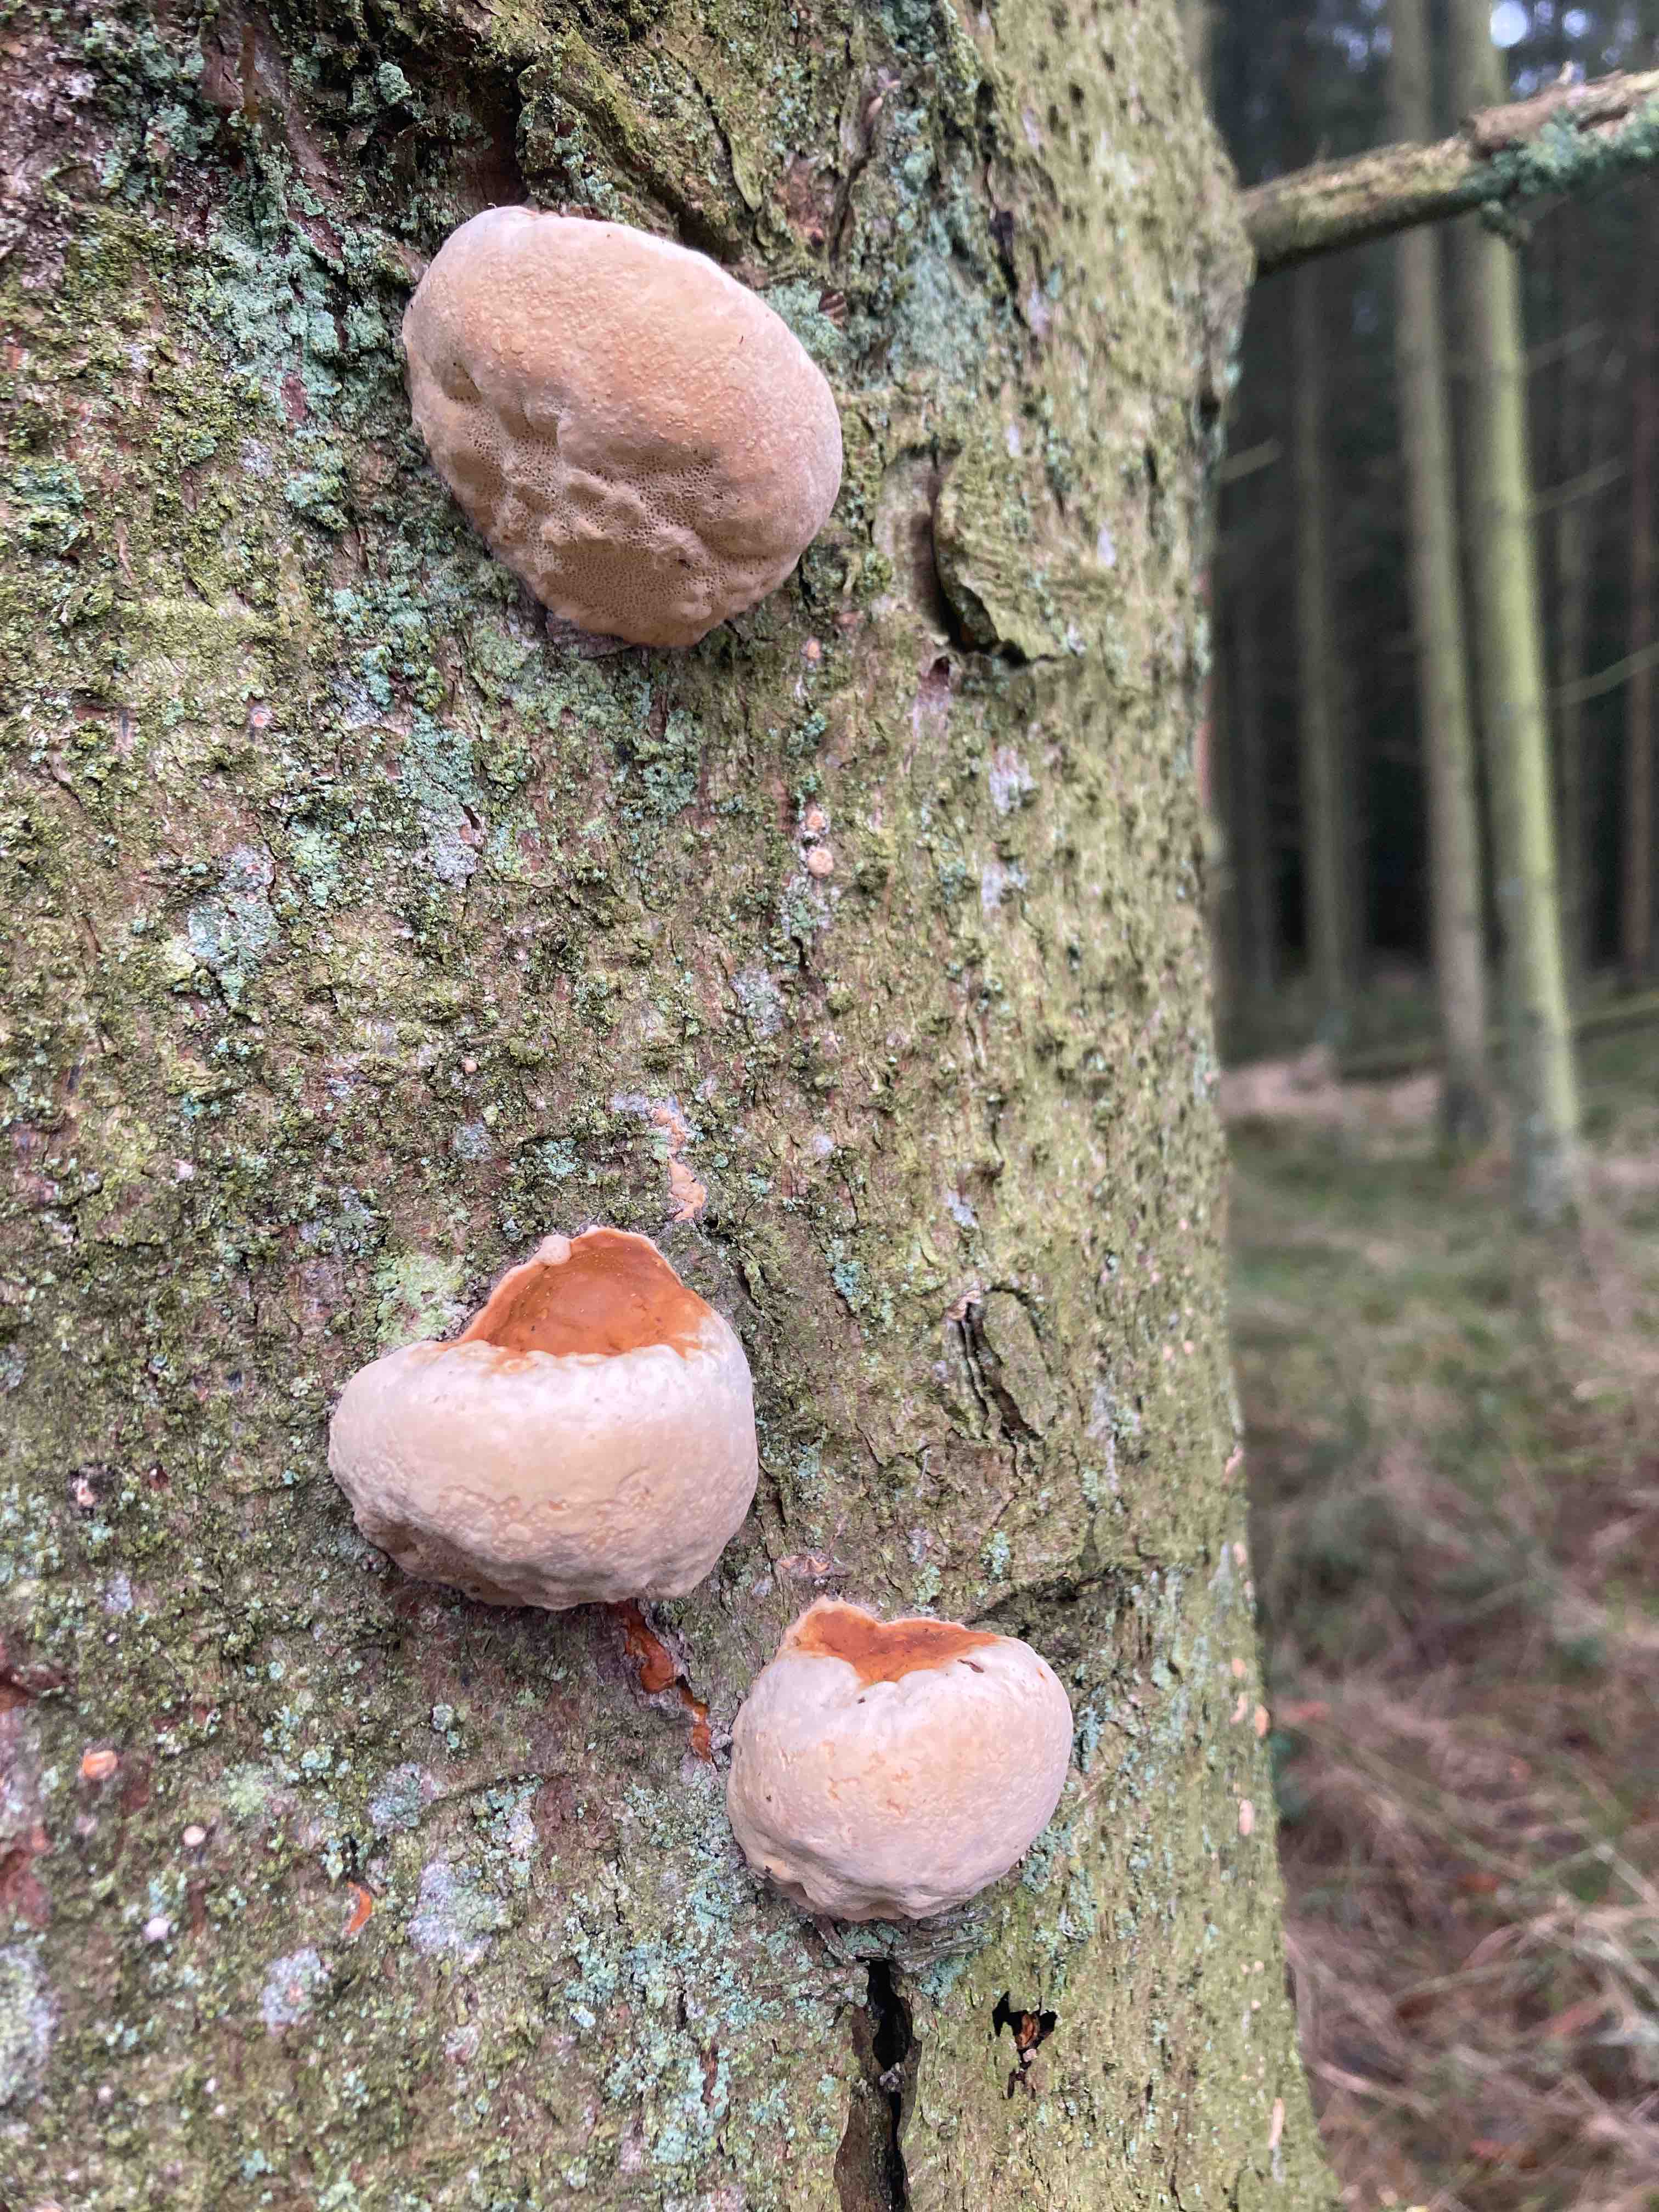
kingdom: Fungi
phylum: Basidiomycota
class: Agaricomycetes
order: Polyporales
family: Fomitopsidaceae
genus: Fomitopsis
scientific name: Fomitopsis pinicola
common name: randbæltet hovporesvamp
